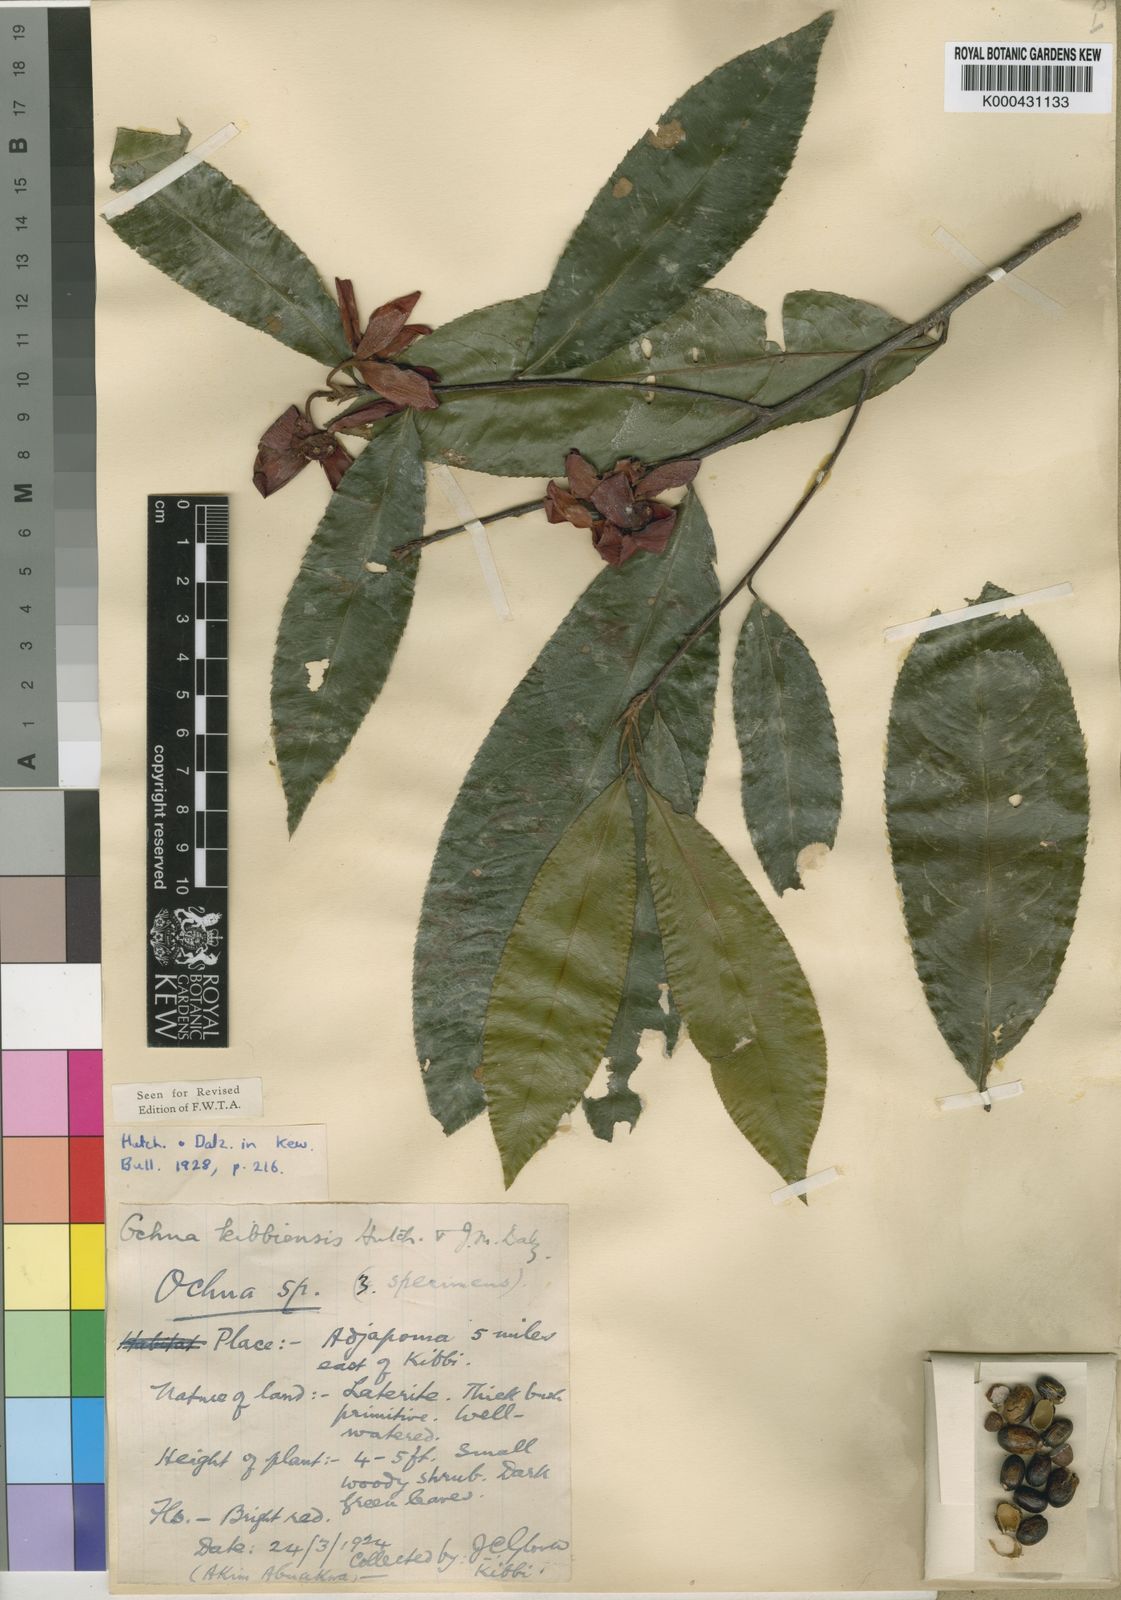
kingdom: Plantae
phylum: Tracheophyta
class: Magnoliopsida
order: Malpighiales
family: Ochnaceae
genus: Ochna
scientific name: Ochna kibbiensis
